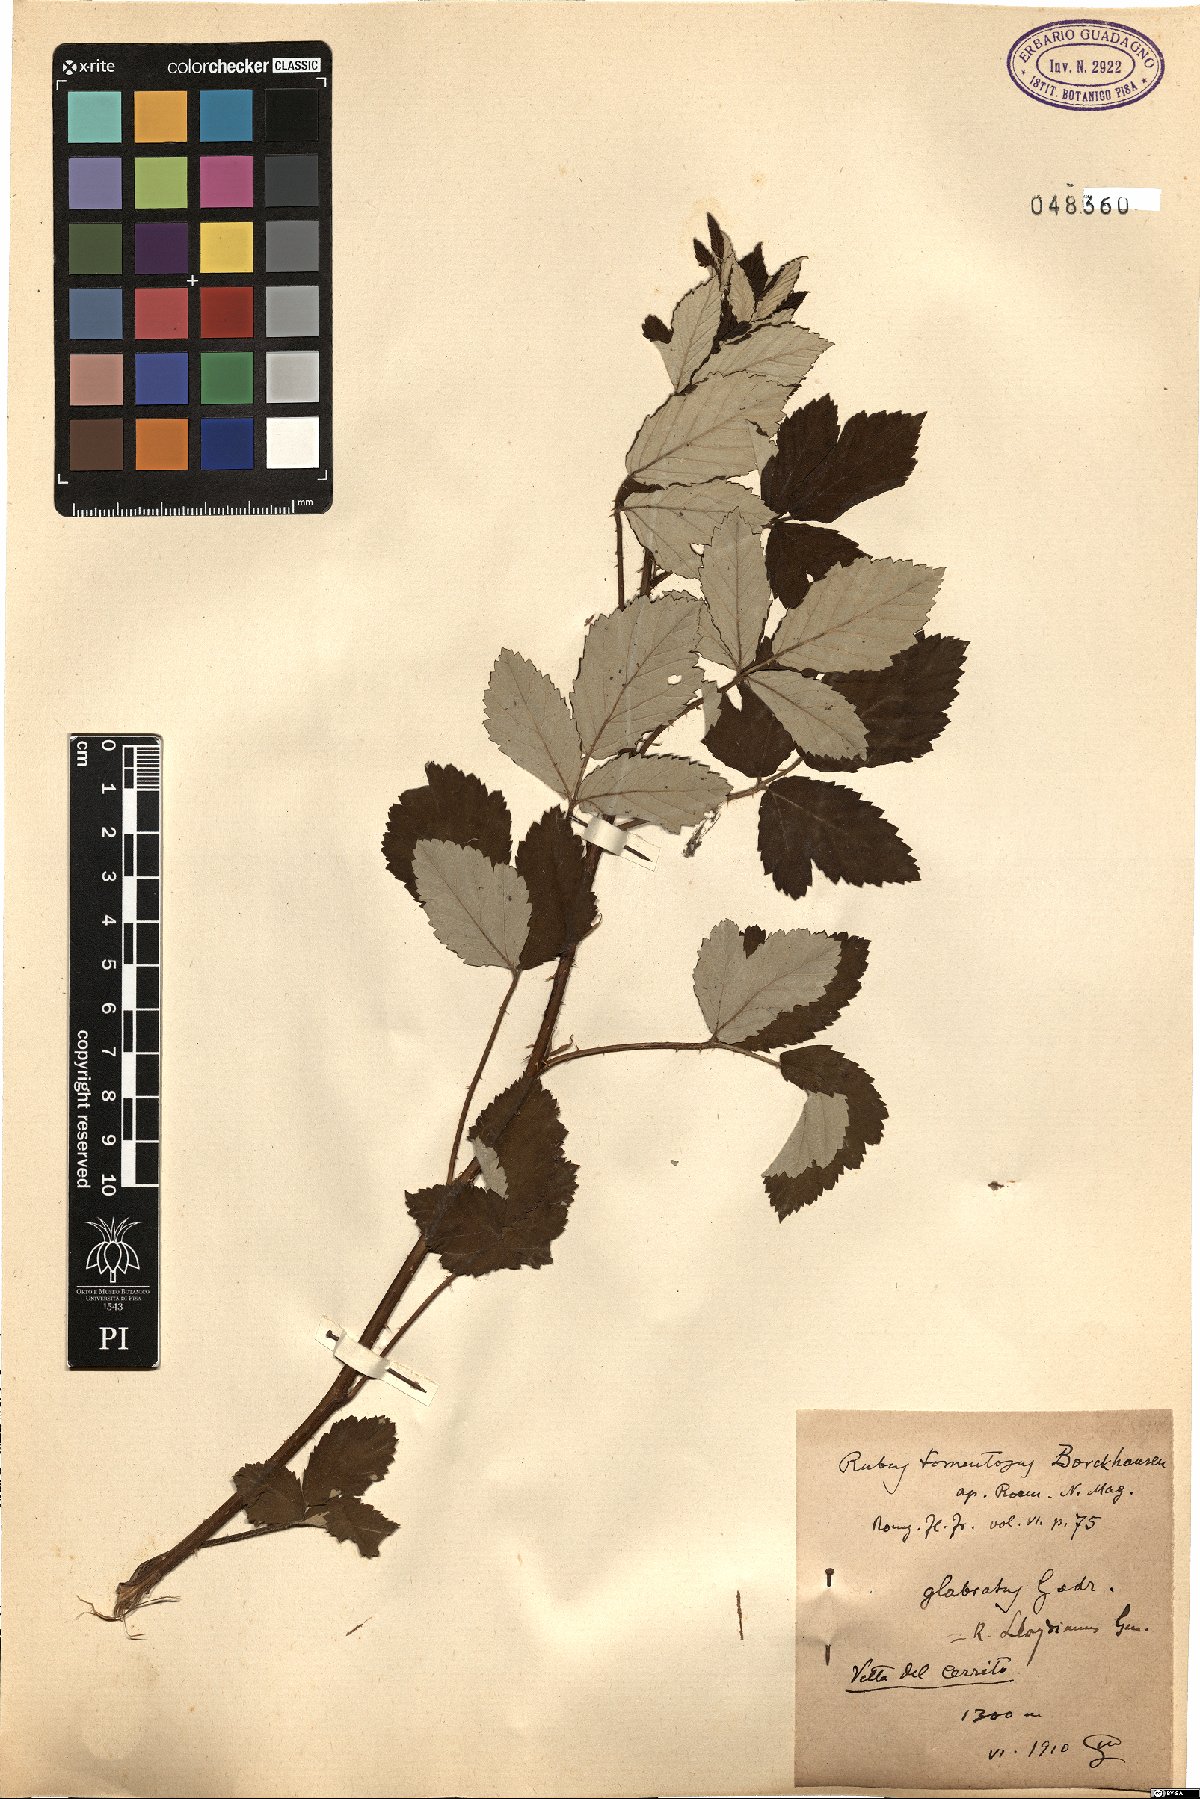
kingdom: Plantae
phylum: Tracheophyta
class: Magnoliopsida
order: Rosales
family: Rosaceae
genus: Rubus
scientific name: Rubus aetnicus
